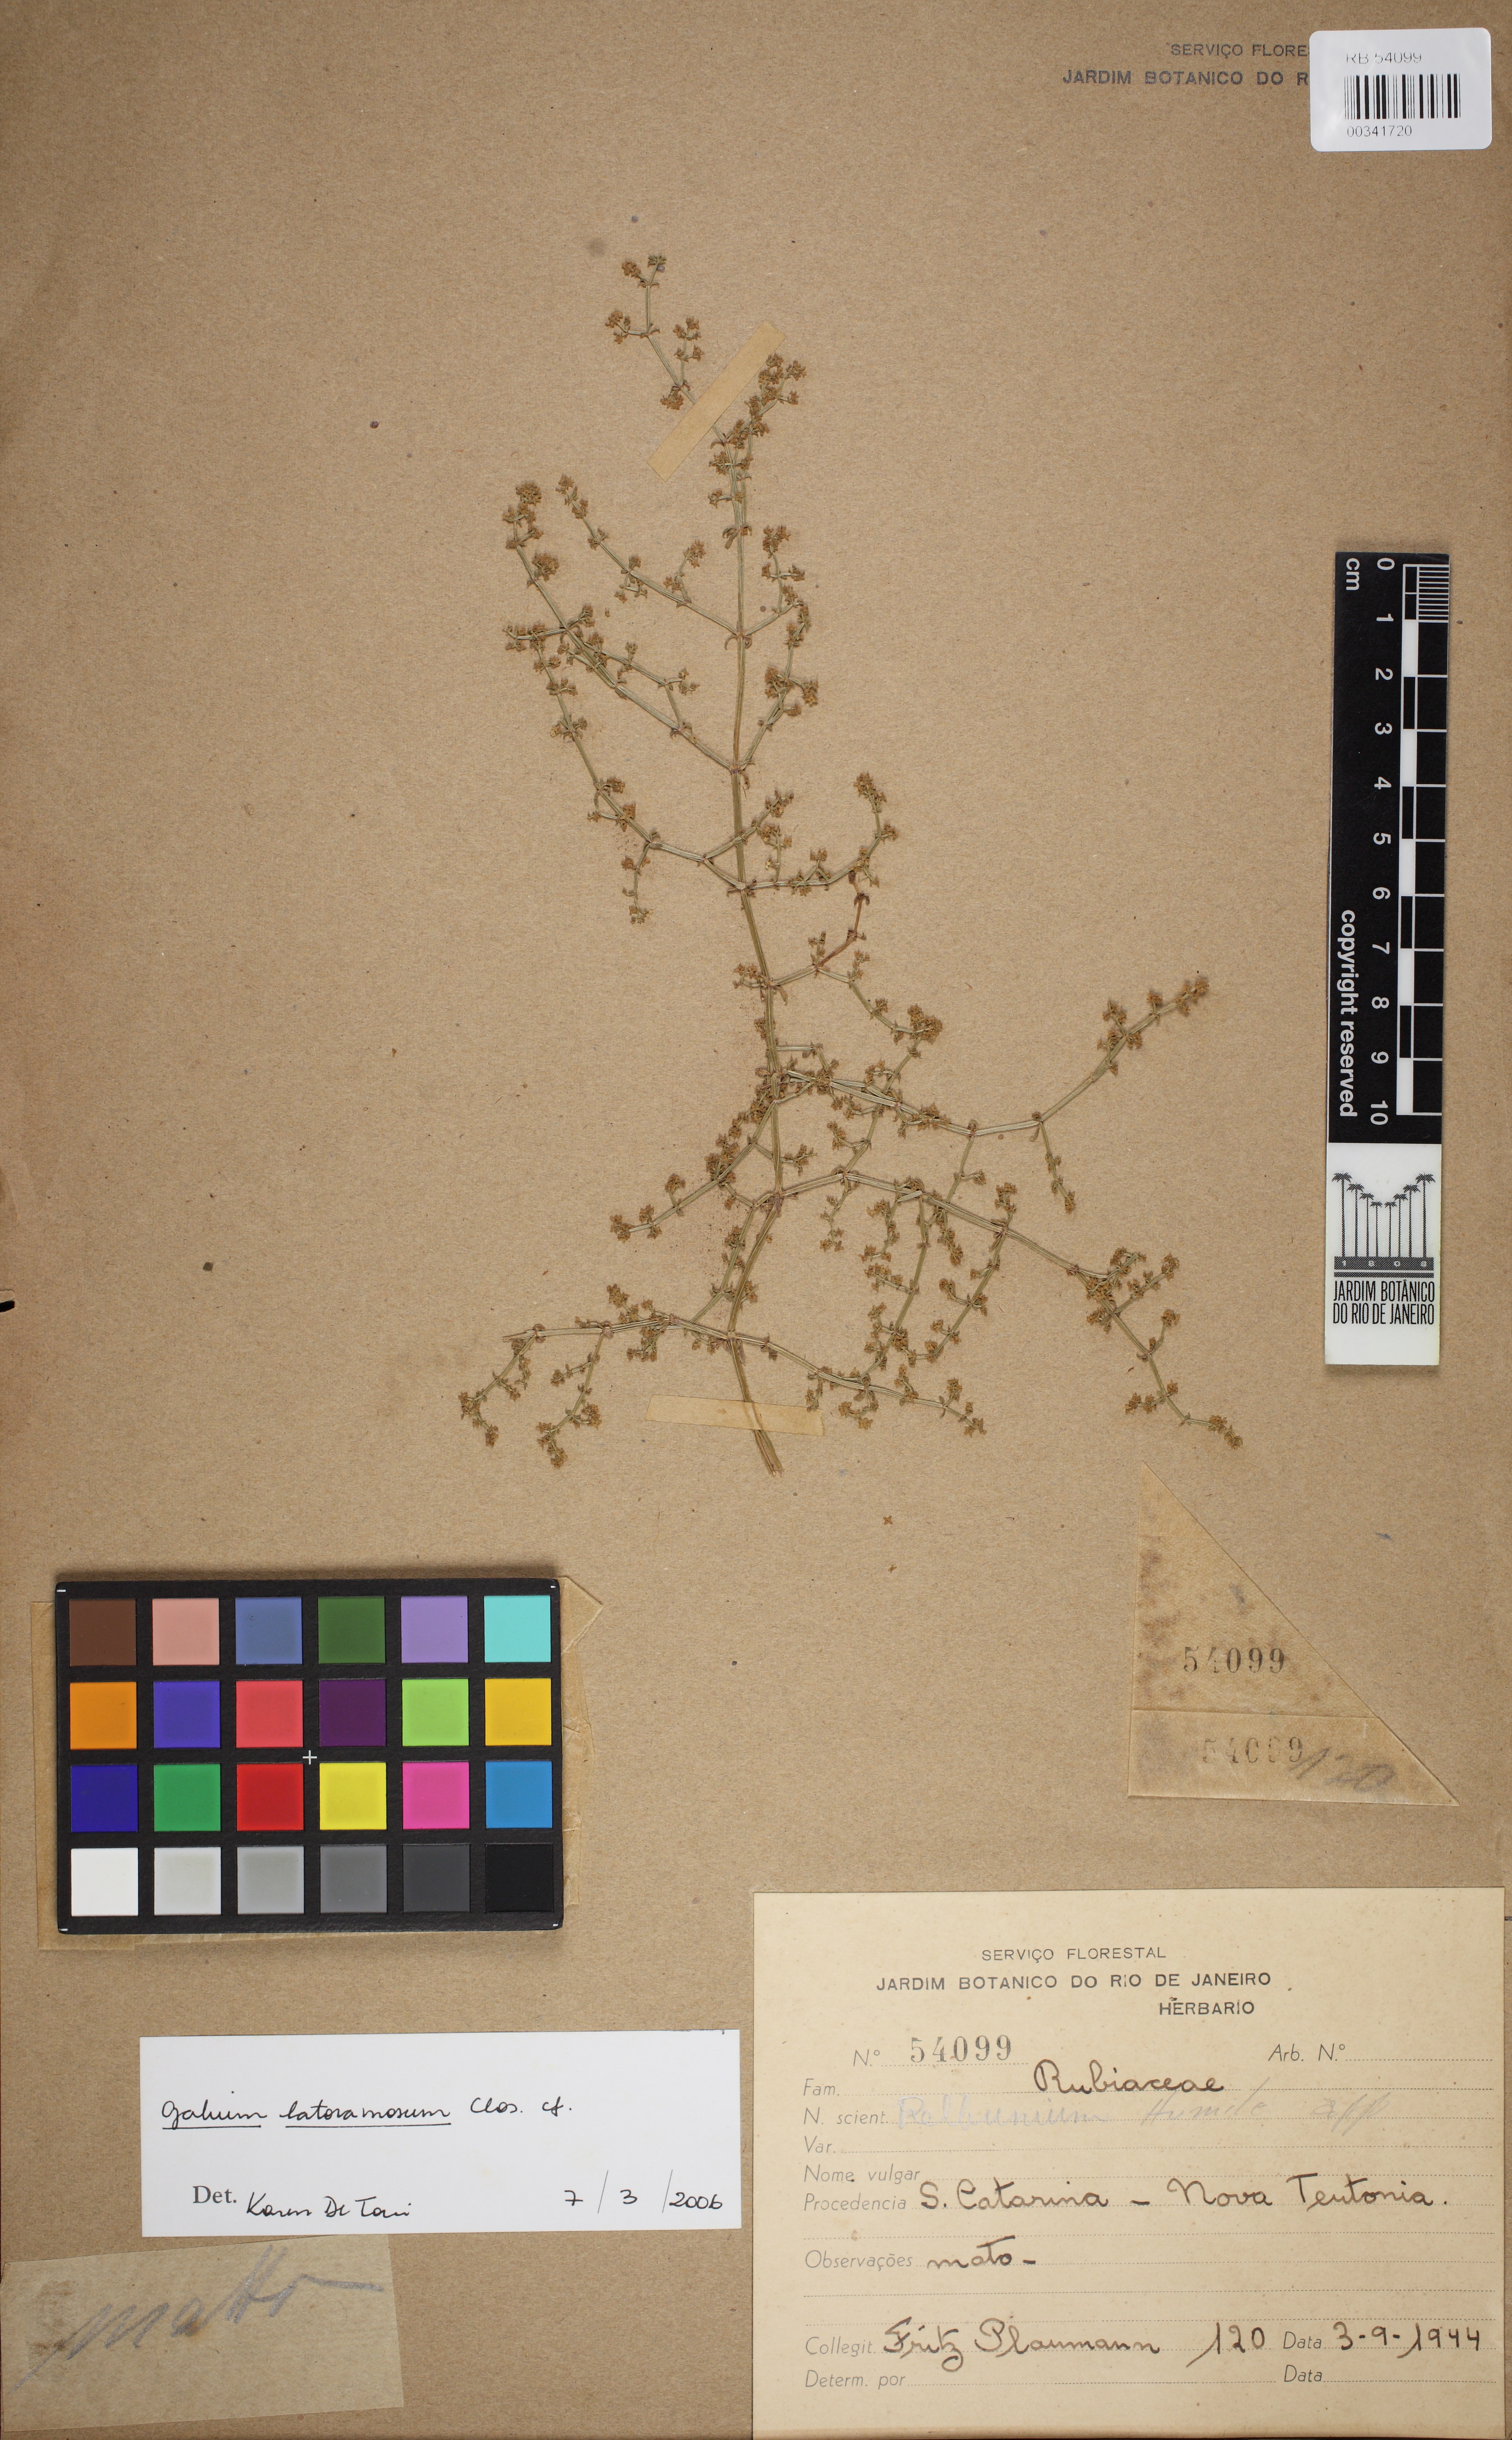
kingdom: Plantae
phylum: Tracheophyta
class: Magnoliopsida
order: Gentianales
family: Rubiaceae
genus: Galium
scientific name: Galium latoramosum
